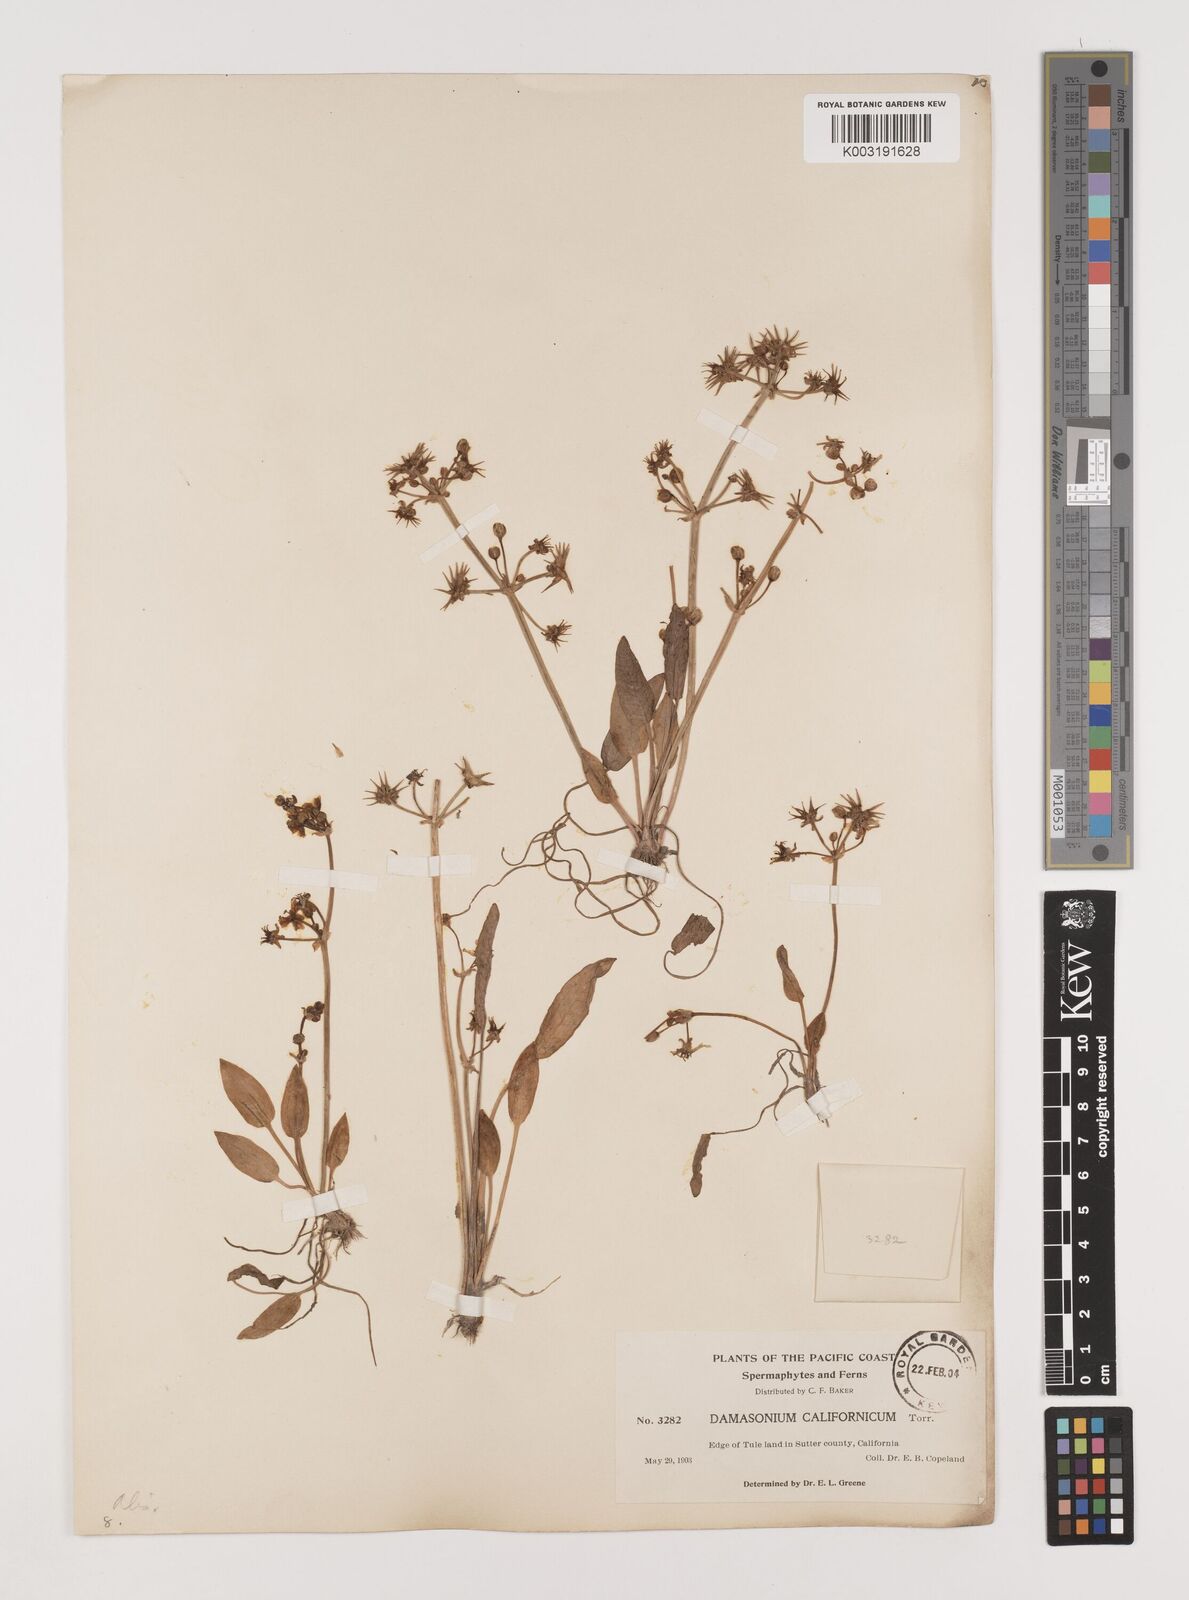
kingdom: Plantae
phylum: Tracheophyta
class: Liliopsida
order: Alismatales
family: Alismataceae
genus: Damasonium
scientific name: Damasonium
